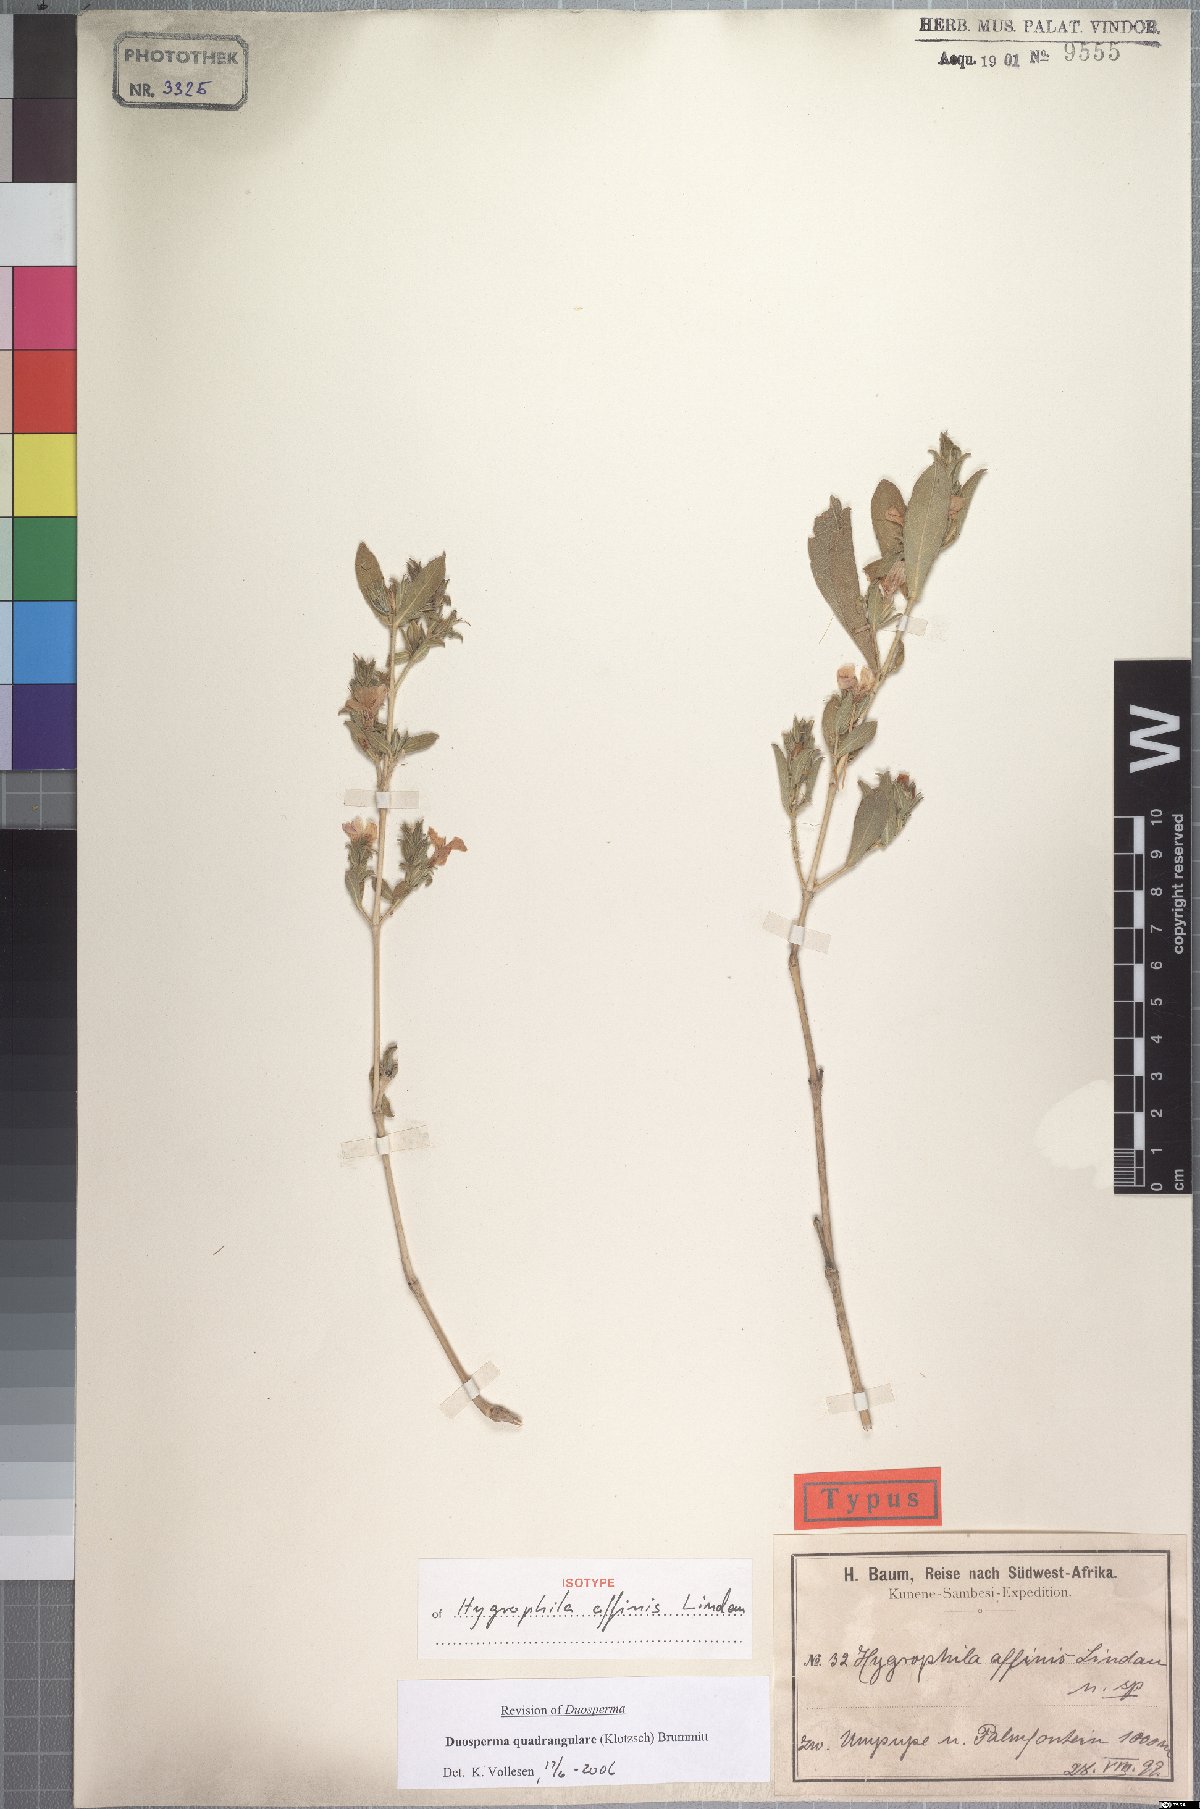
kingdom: Plantae
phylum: Tracheophyta
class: Magnoliopsida
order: Lamiales
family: Acanthaceae
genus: Duosperma
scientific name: Duosperma quadrangulare
